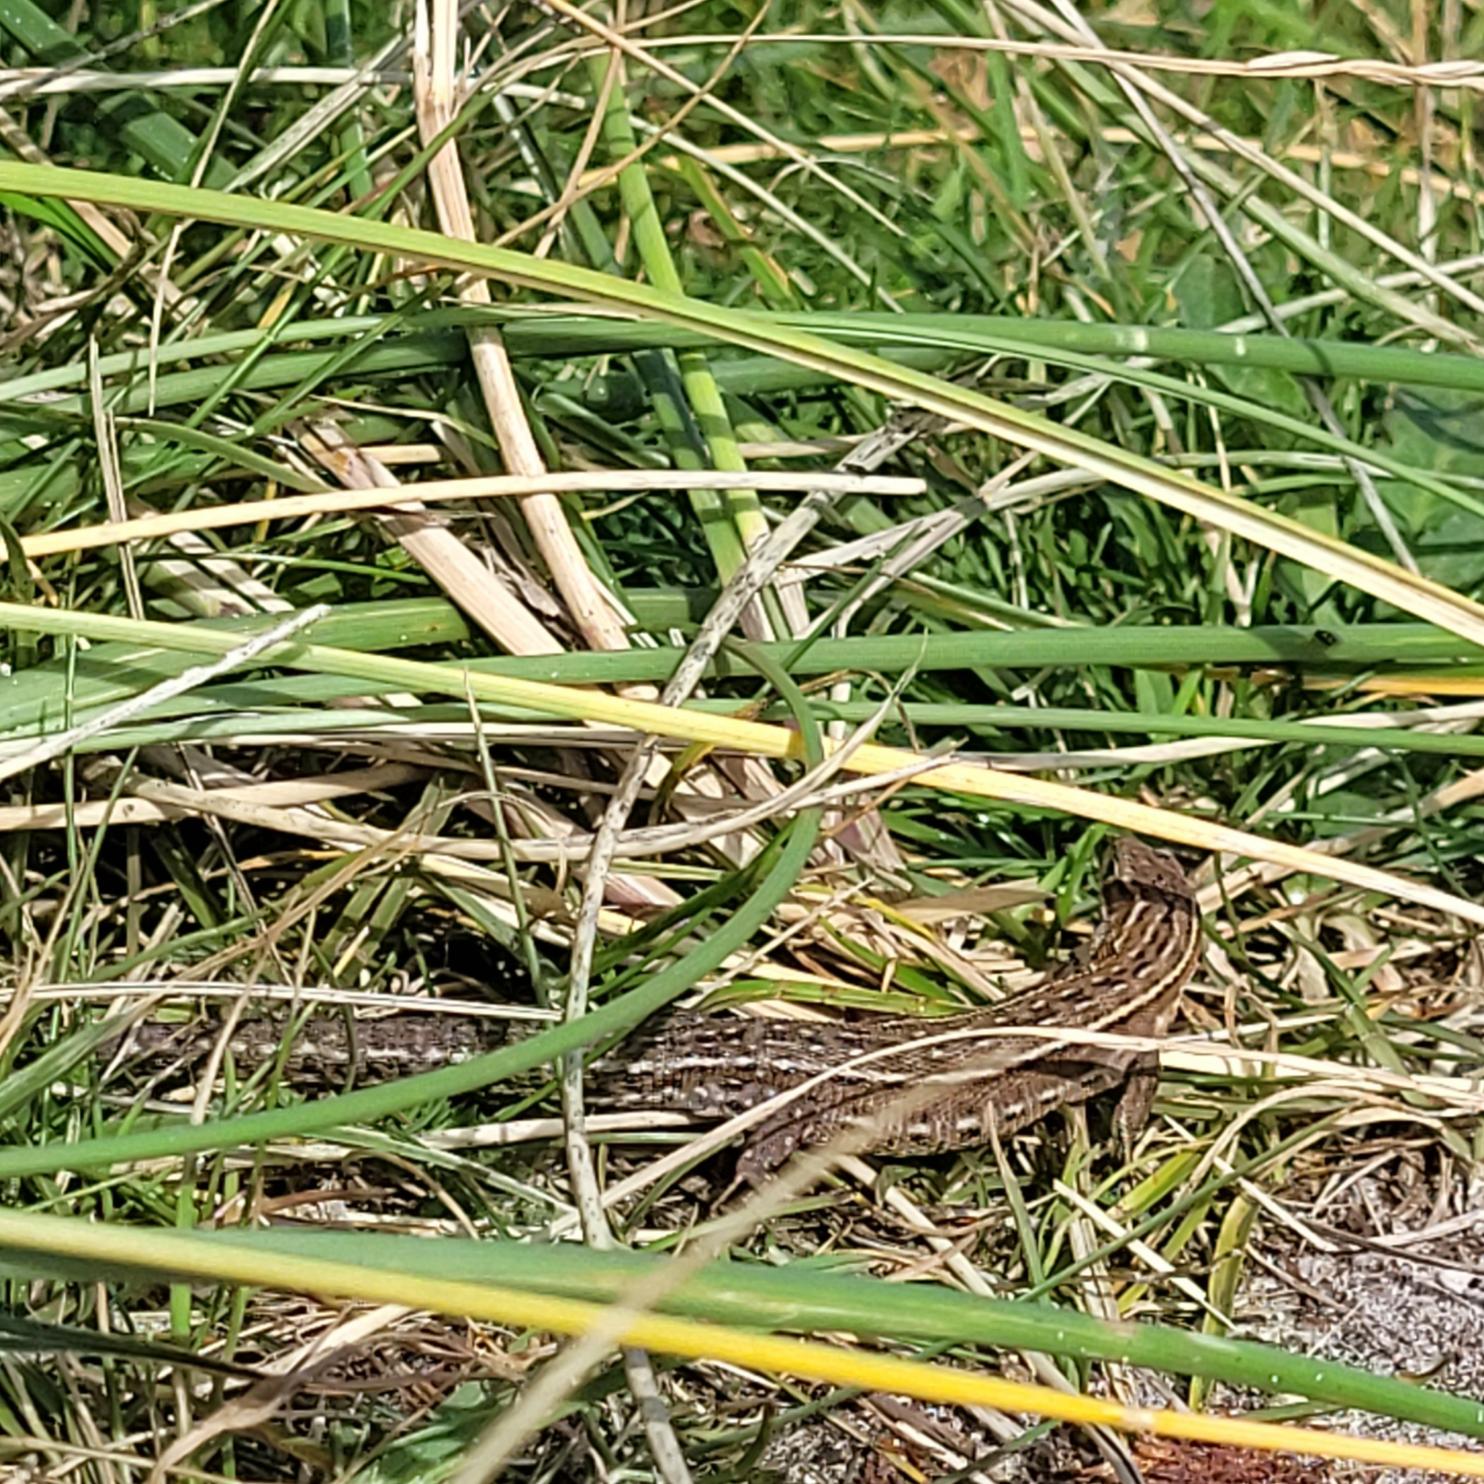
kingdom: Animalia
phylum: Chordata
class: Squamata
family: Lacertidae
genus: Zootoca
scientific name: Zootoca vivipara
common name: Skovfirben
